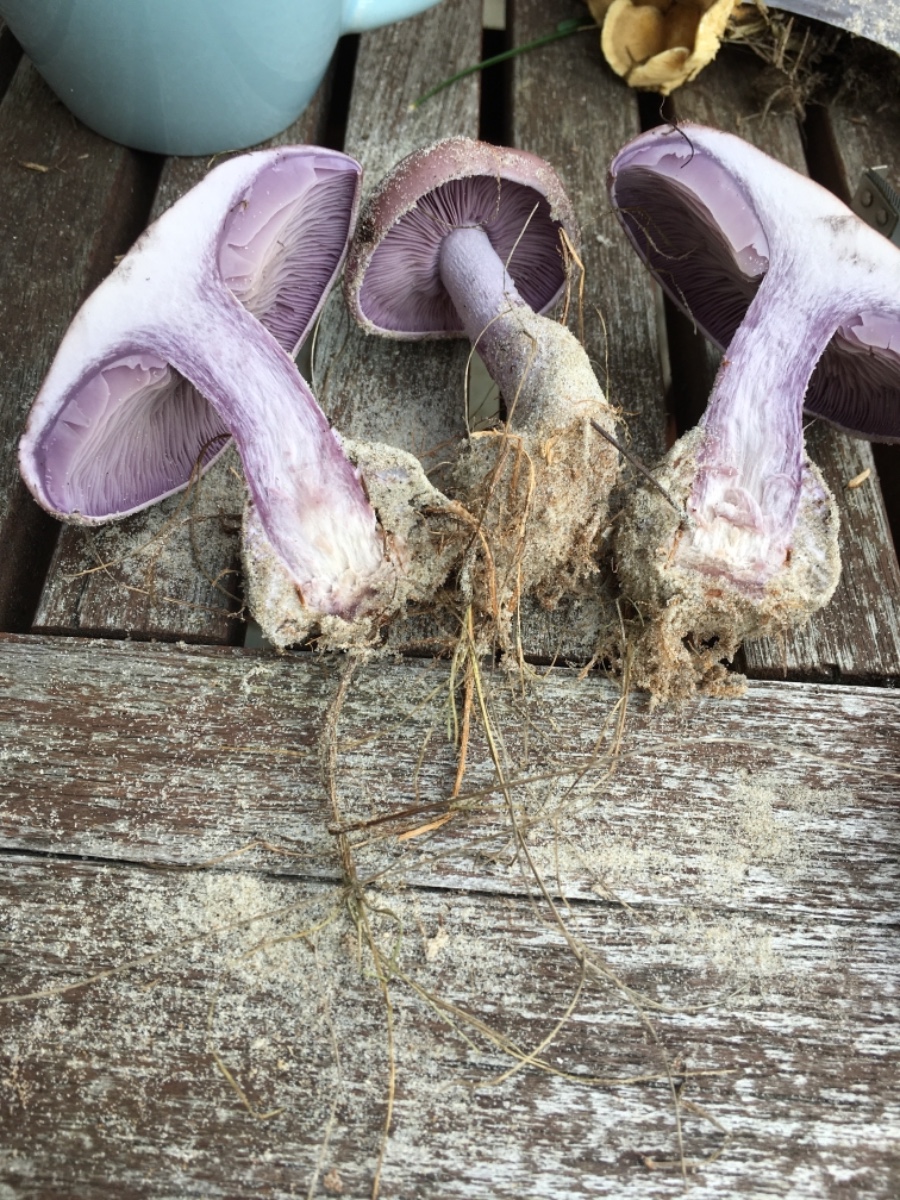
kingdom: Fungi
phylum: Basidiomycota
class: Agaricomycetes
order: Agaricales
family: Tricholomataceae
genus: Lepista
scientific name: Lepista nuda
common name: violet hekseringshat
